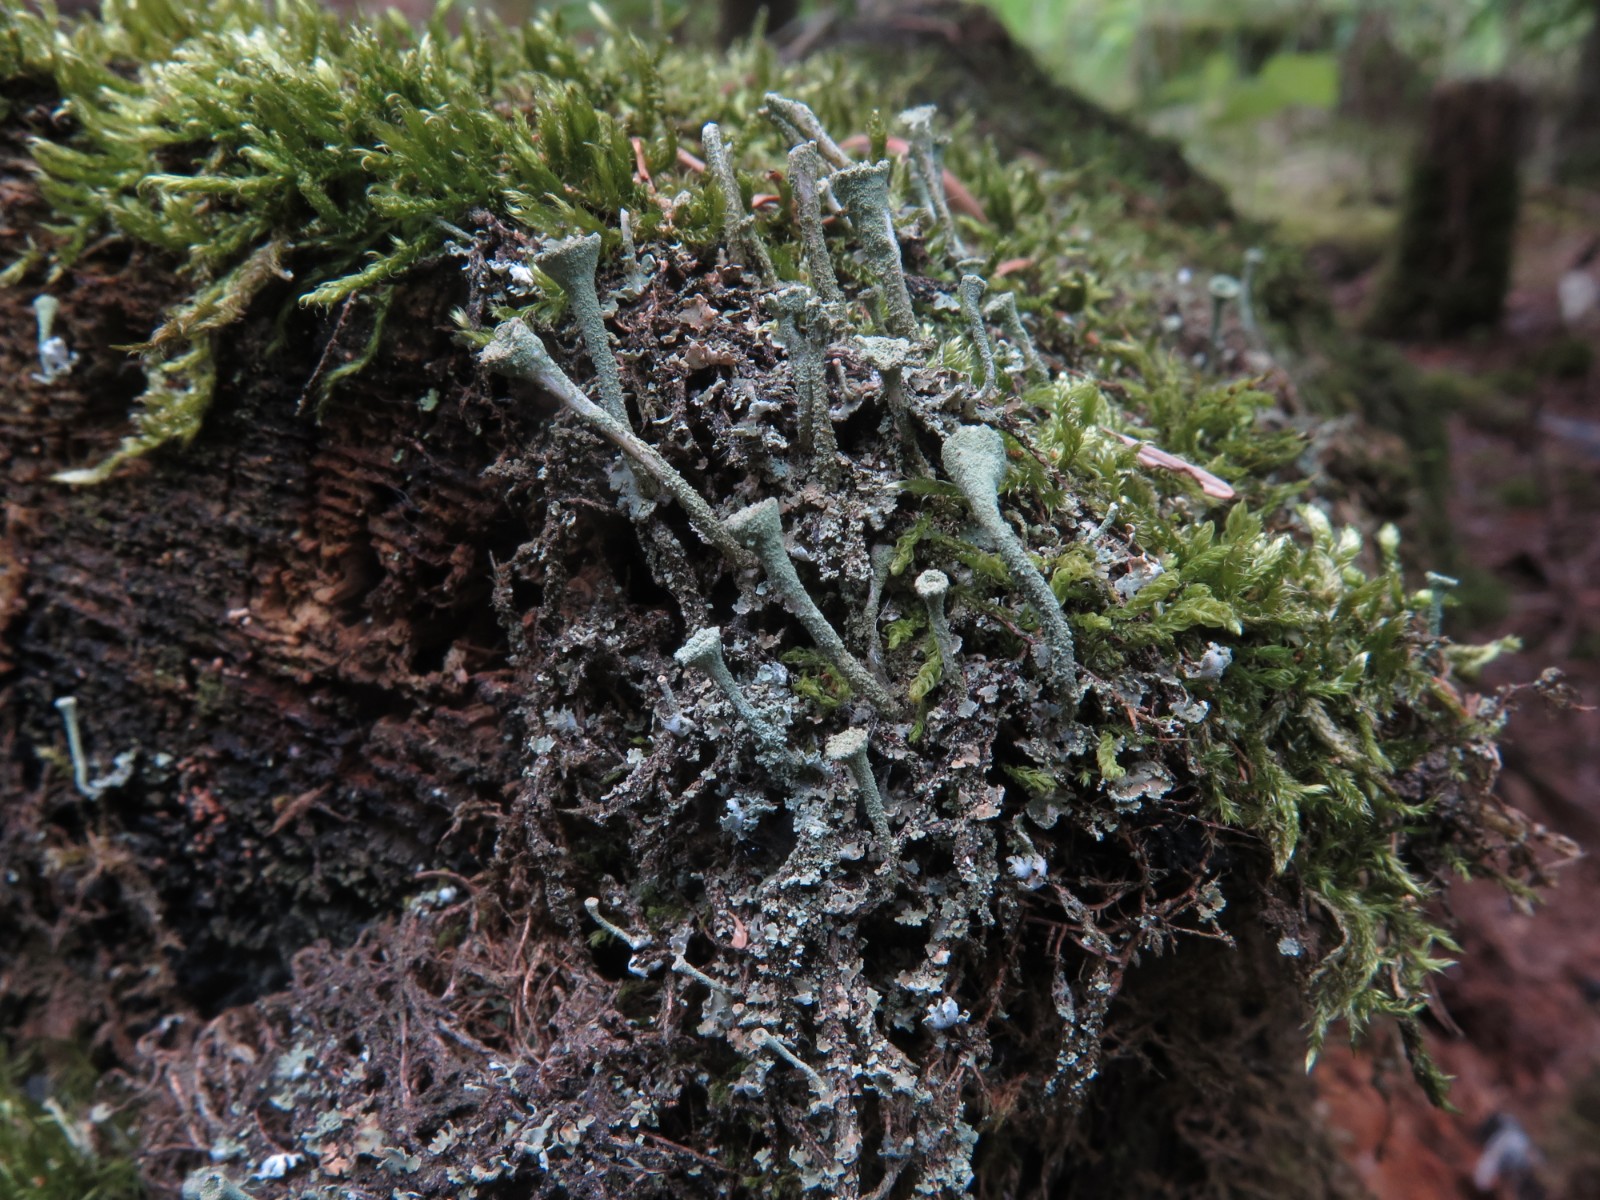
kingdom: Fungi
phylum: Ascomycota
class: Lecanoromycetes
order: Lecanorales
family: Cladoniaceae
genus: Cladonia
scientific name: Cladonia
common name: brungrøn bægerlav
